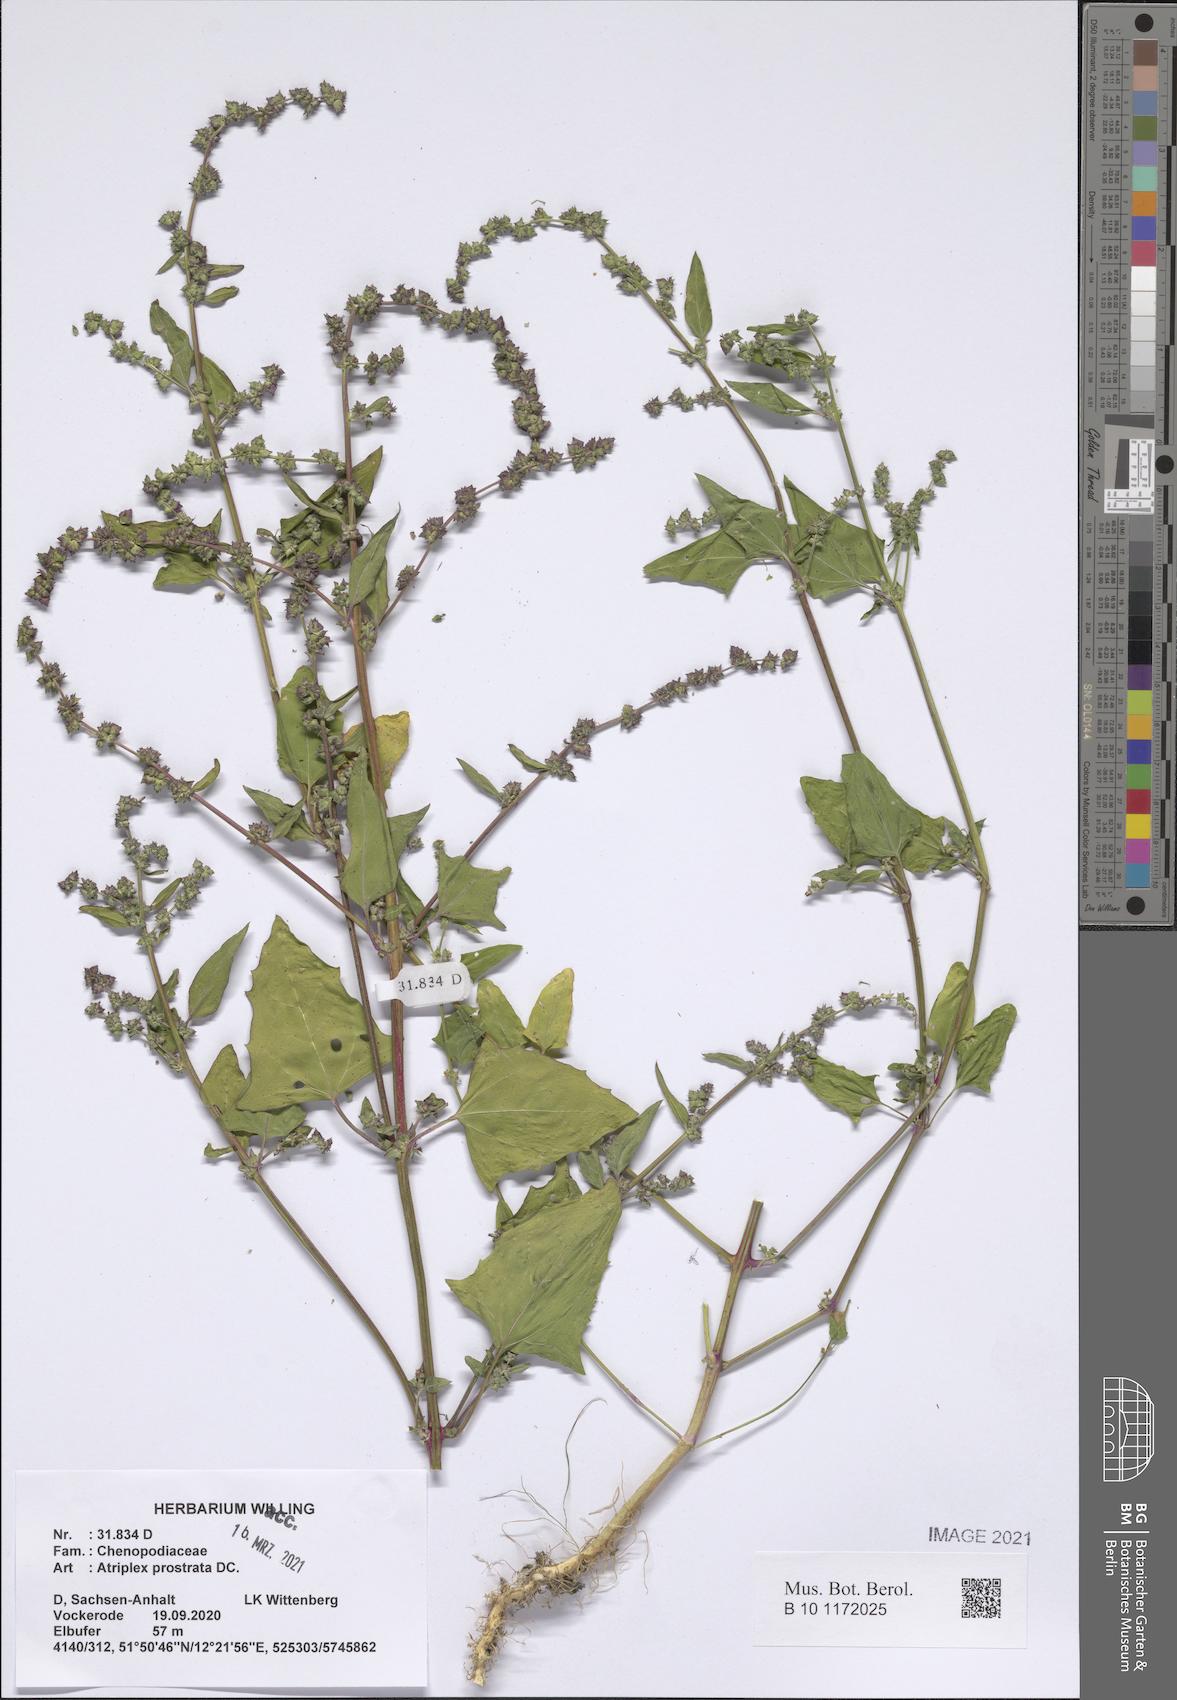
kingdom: Plantae
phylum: Tracheophyta
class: Magnoliopsida
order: Caryophyllales
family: Amaranthaceae
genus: Atriplex
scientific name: Atriplex prostrata
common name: Spear-leaved orache
